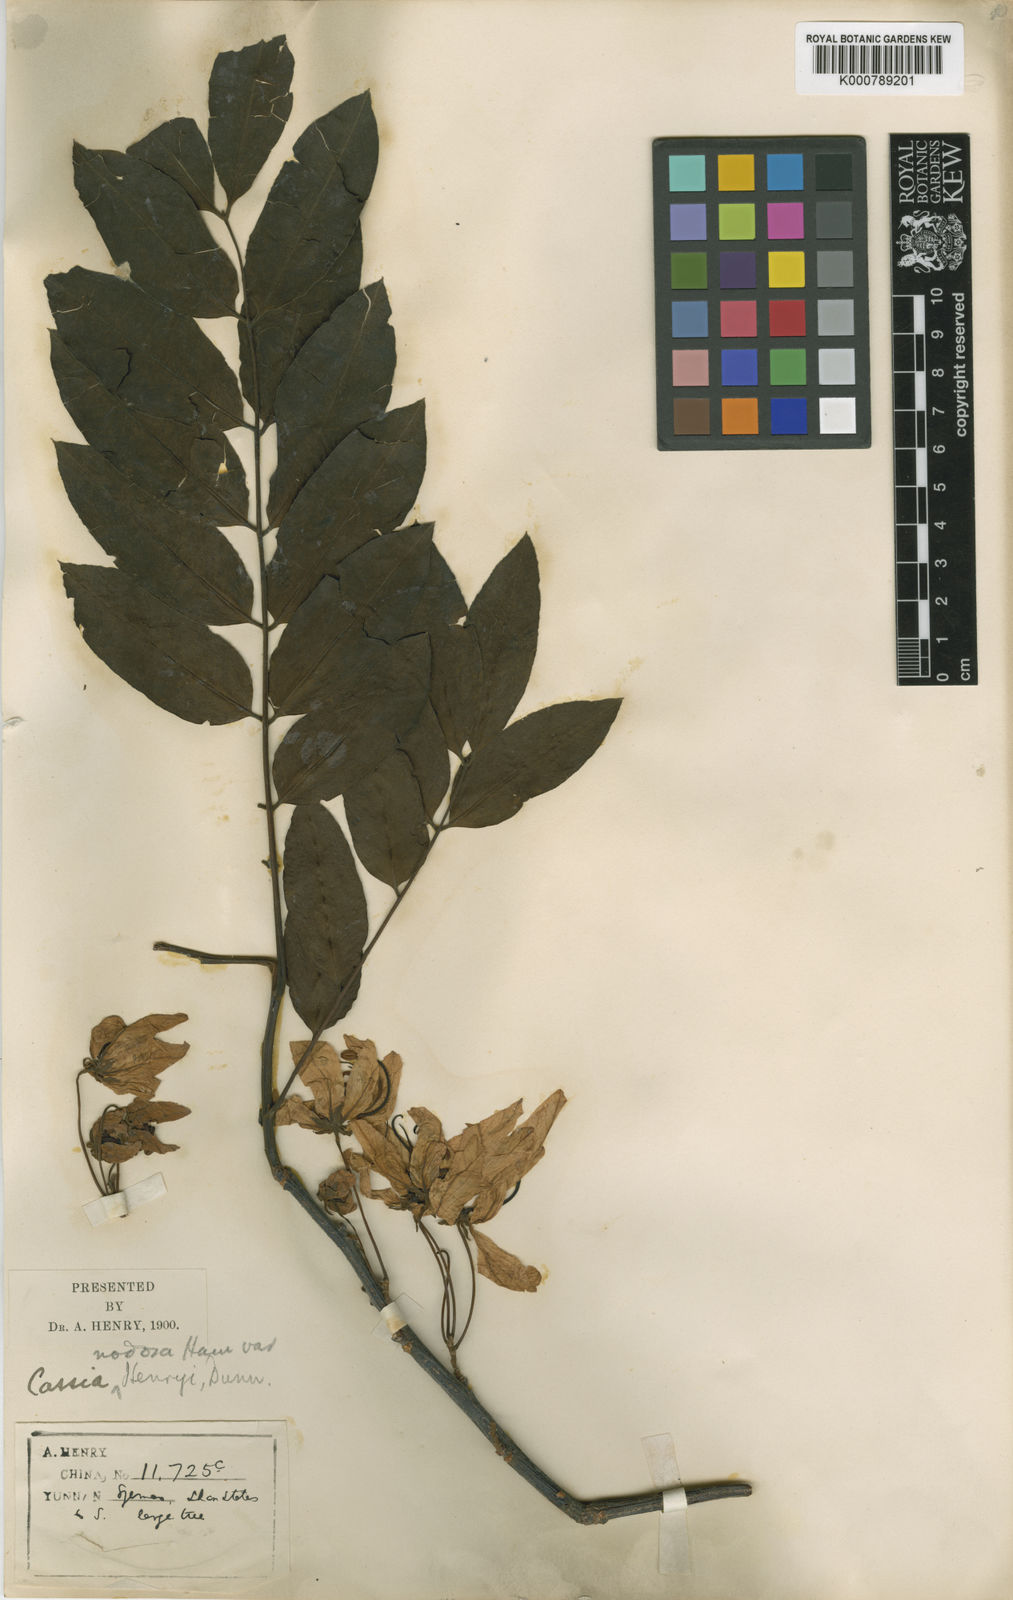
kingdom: Plantae
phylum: Tracheophyta
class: Magnoliopsida
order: Fabales
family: Fabaceae
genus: Cassia
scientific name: Cassia javanica
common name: Apple blossom
